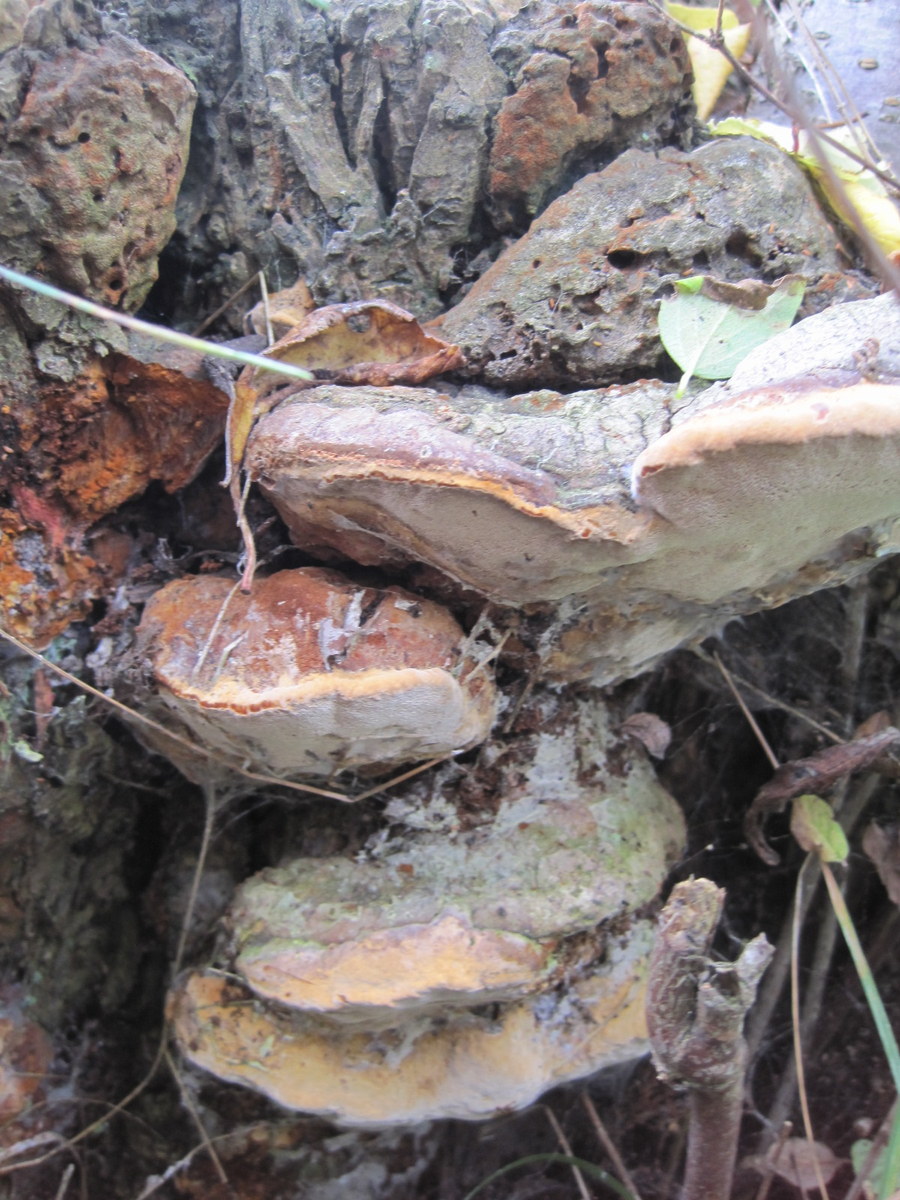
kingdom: Fungi
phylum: Basidiomycota
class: Agaricomycetes
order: Hymenochaetales
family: Hymenochaetaceae
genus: Phellinus
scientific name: Phellinus pomaceus
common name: blomme-ildporesvamp
